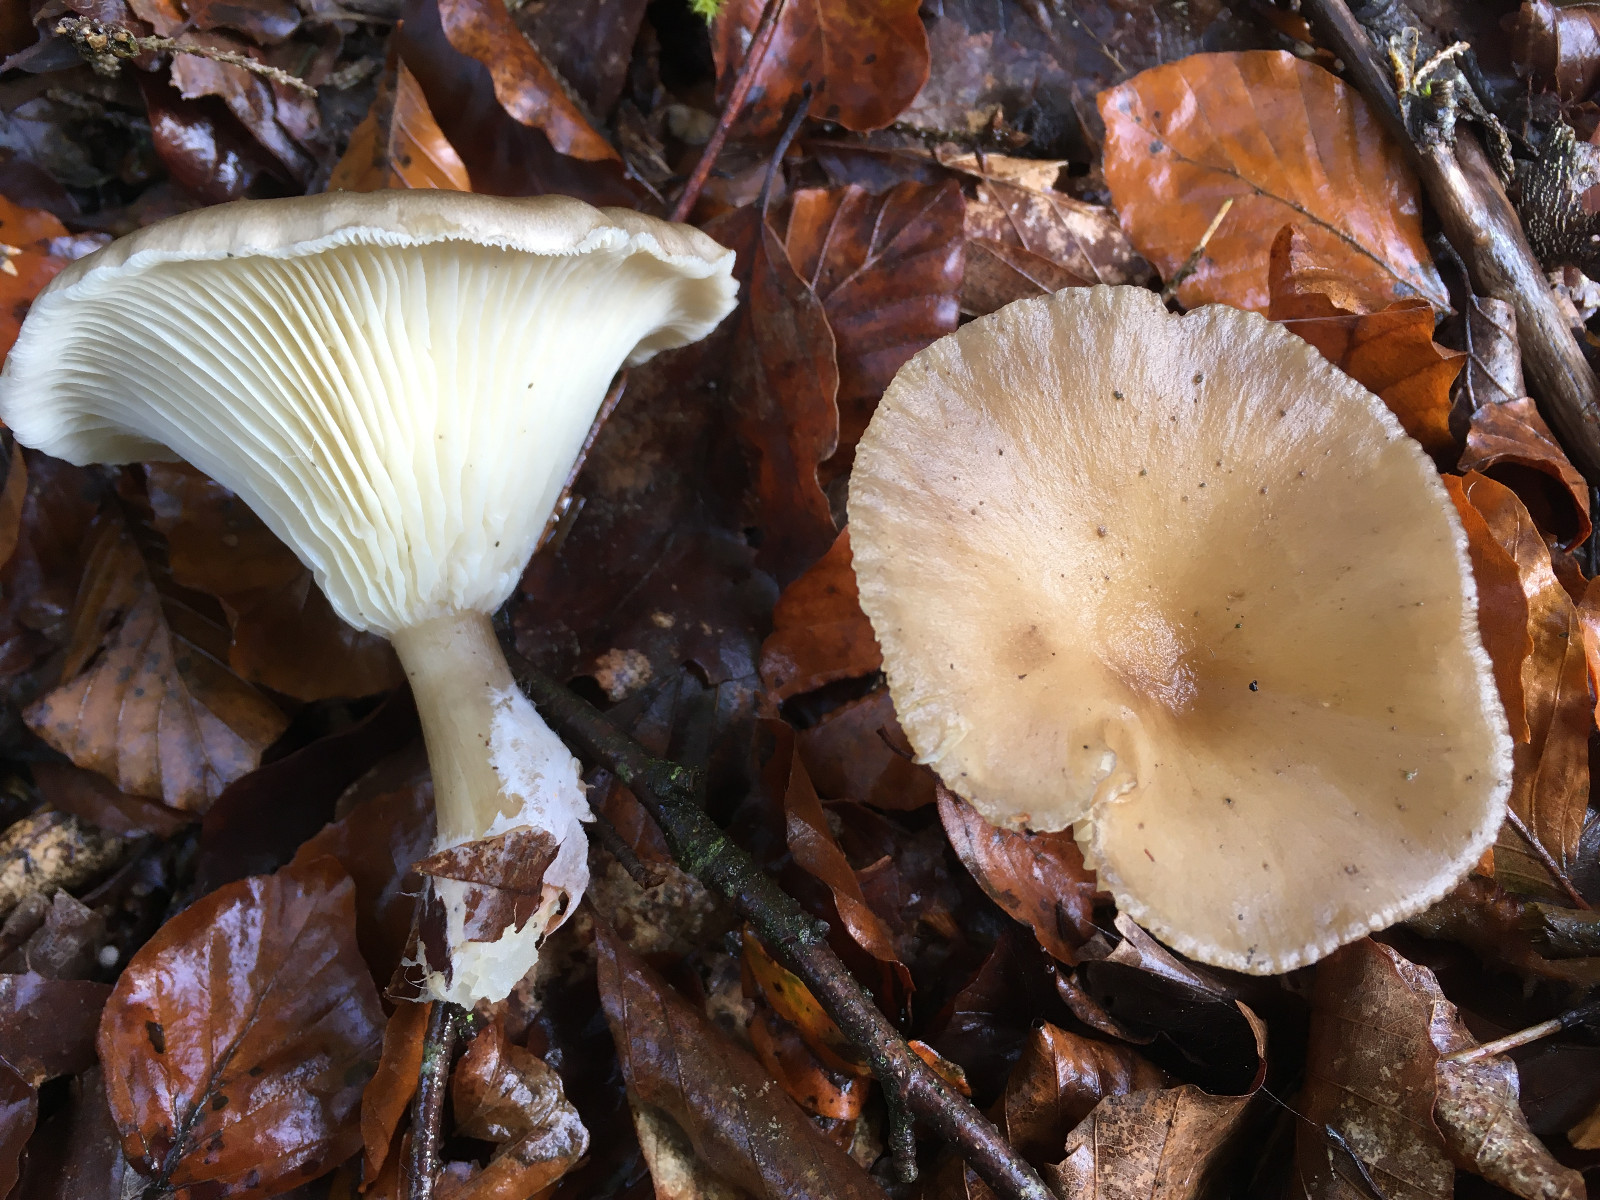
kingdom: Fungi
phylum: Basidiomycota
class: Agaricomycetes
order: Agaricales
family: Tricholomataceae
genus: Infundibulicybe
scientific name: Infundibulicybe gibba
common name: almindelig tragthat
